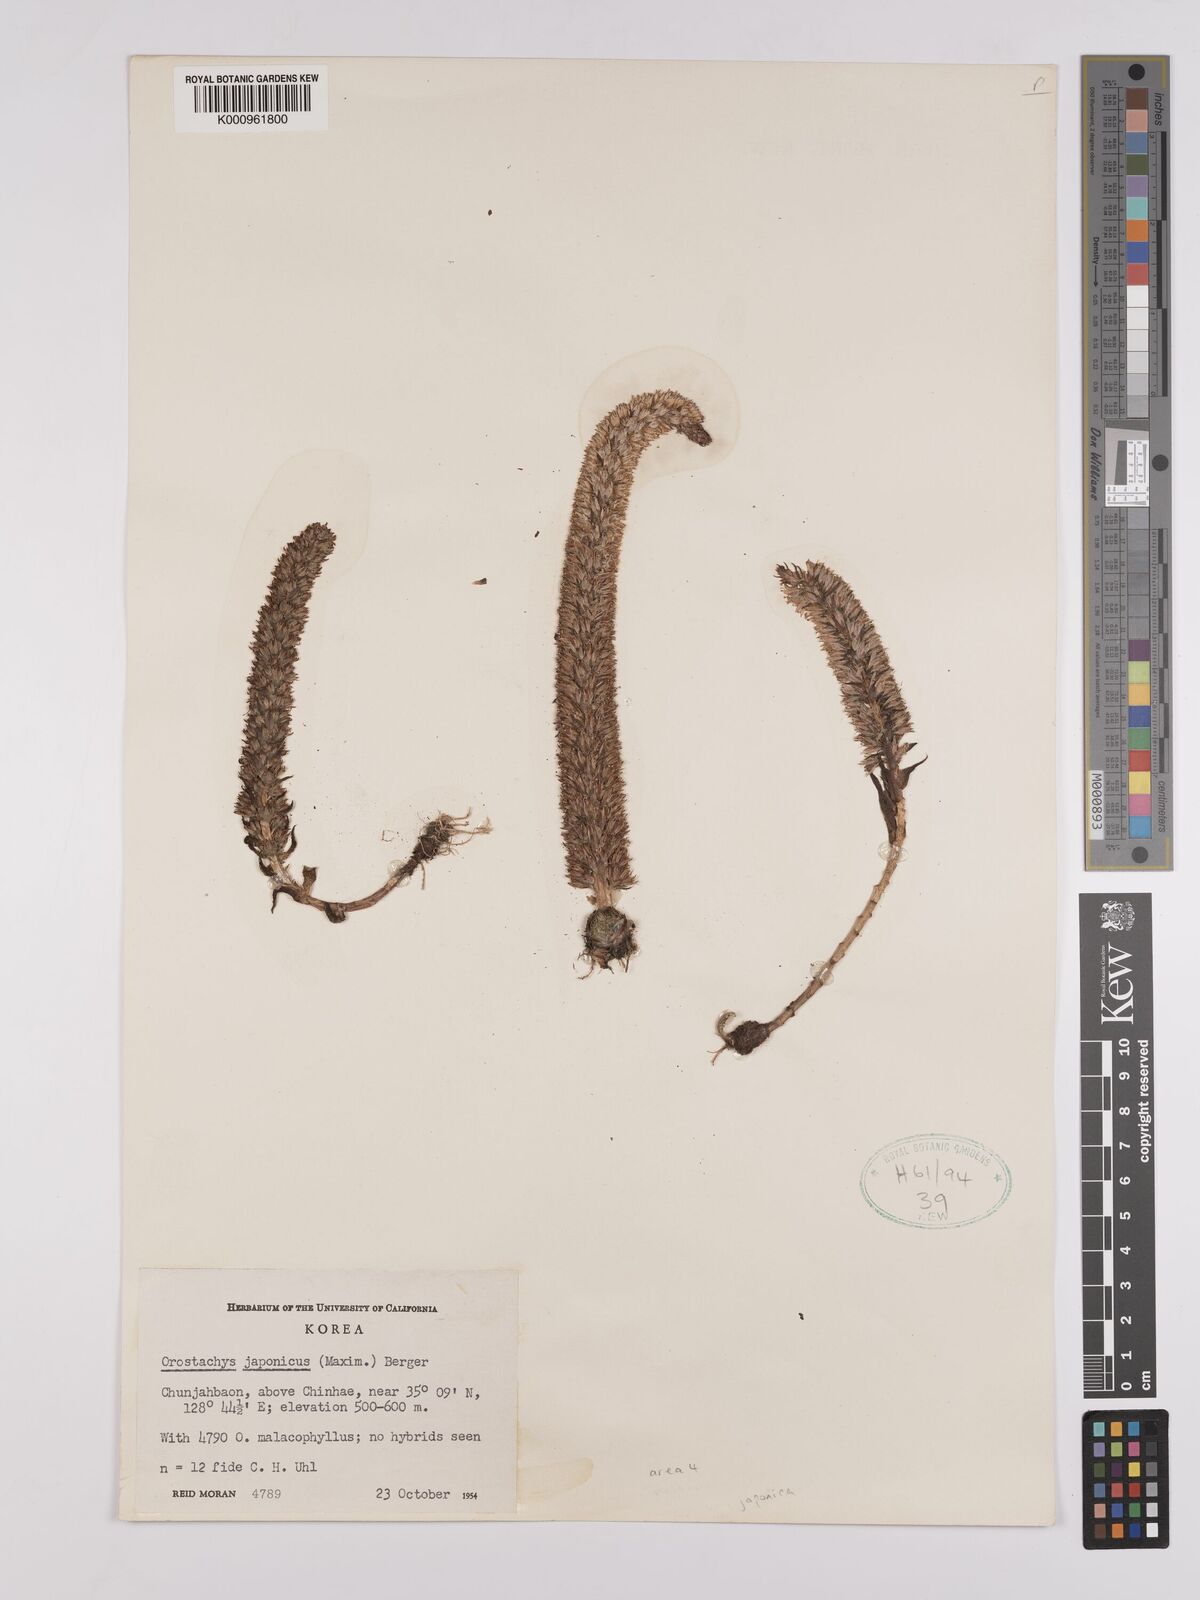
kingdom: Plantae
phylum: Tracheophyta
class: Magnoliopsida
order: Saxifragales
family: Crassulaceae
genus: Orostachys
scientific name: Orostachys japonica
